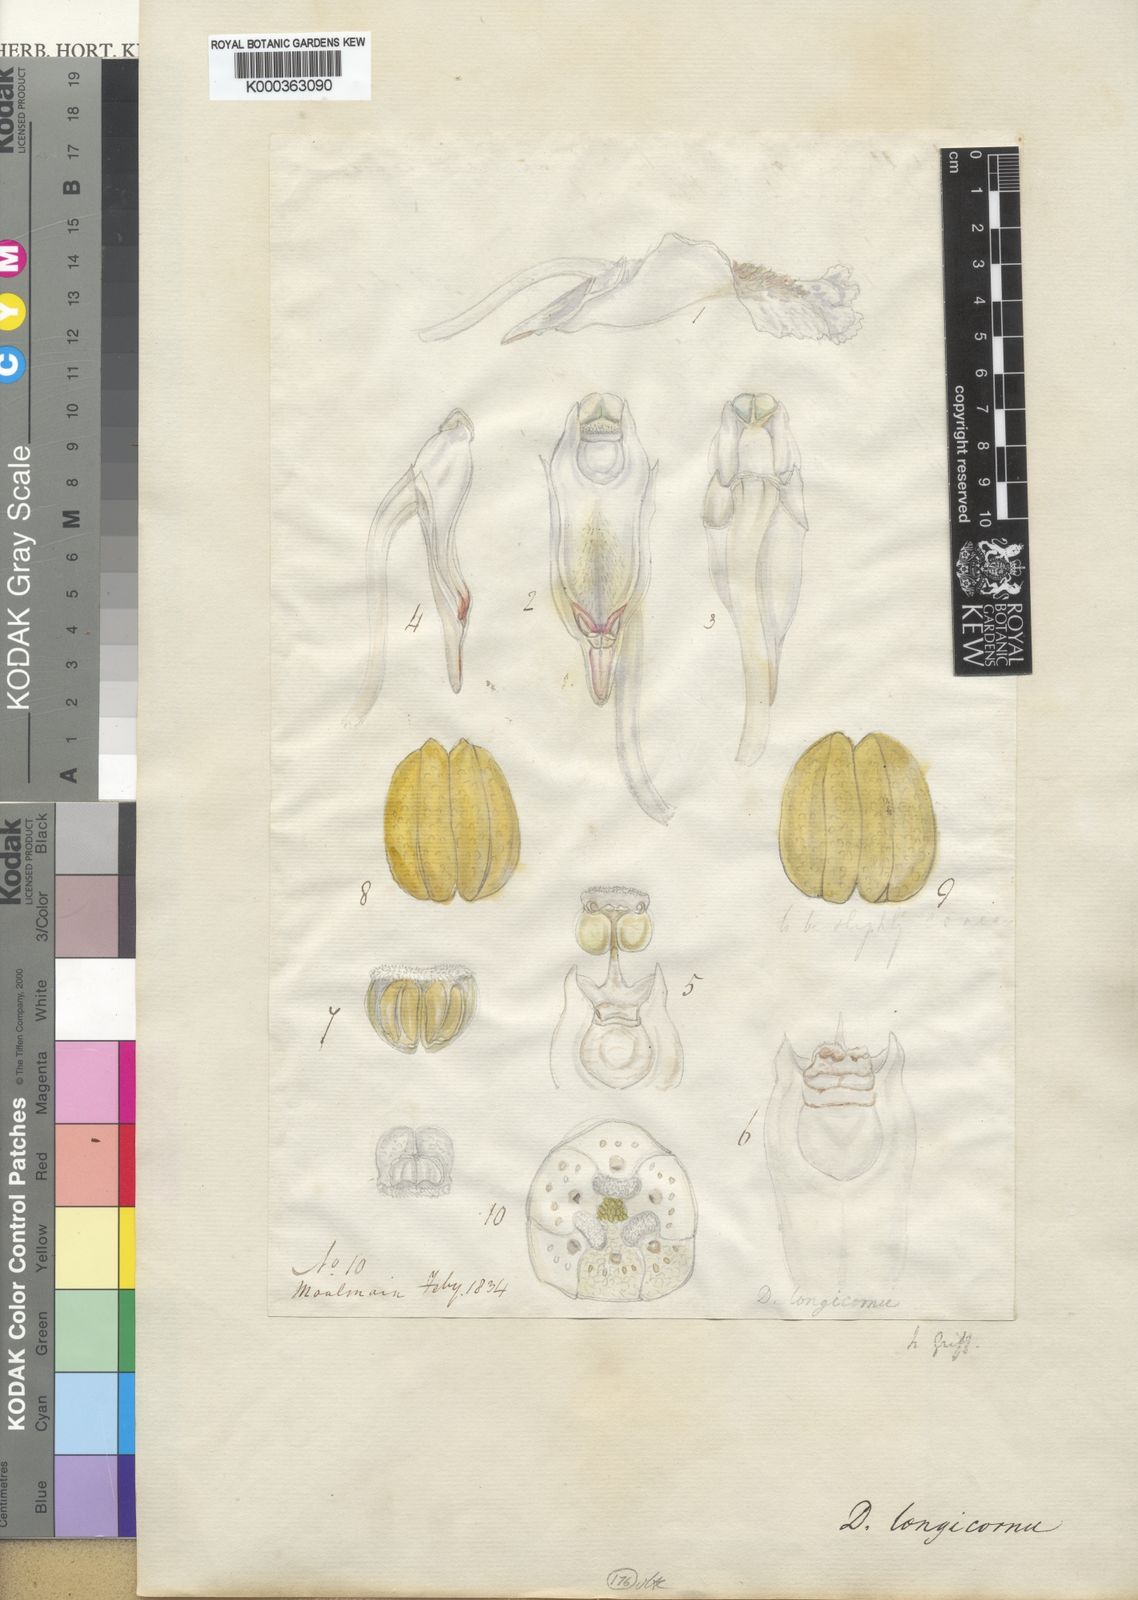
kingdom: Plantae
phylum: Tracheophyta
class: Liliopsida
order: Asparagales
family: Orchidaceae
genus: Dendrobium
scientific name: Dendrobium longicornu
